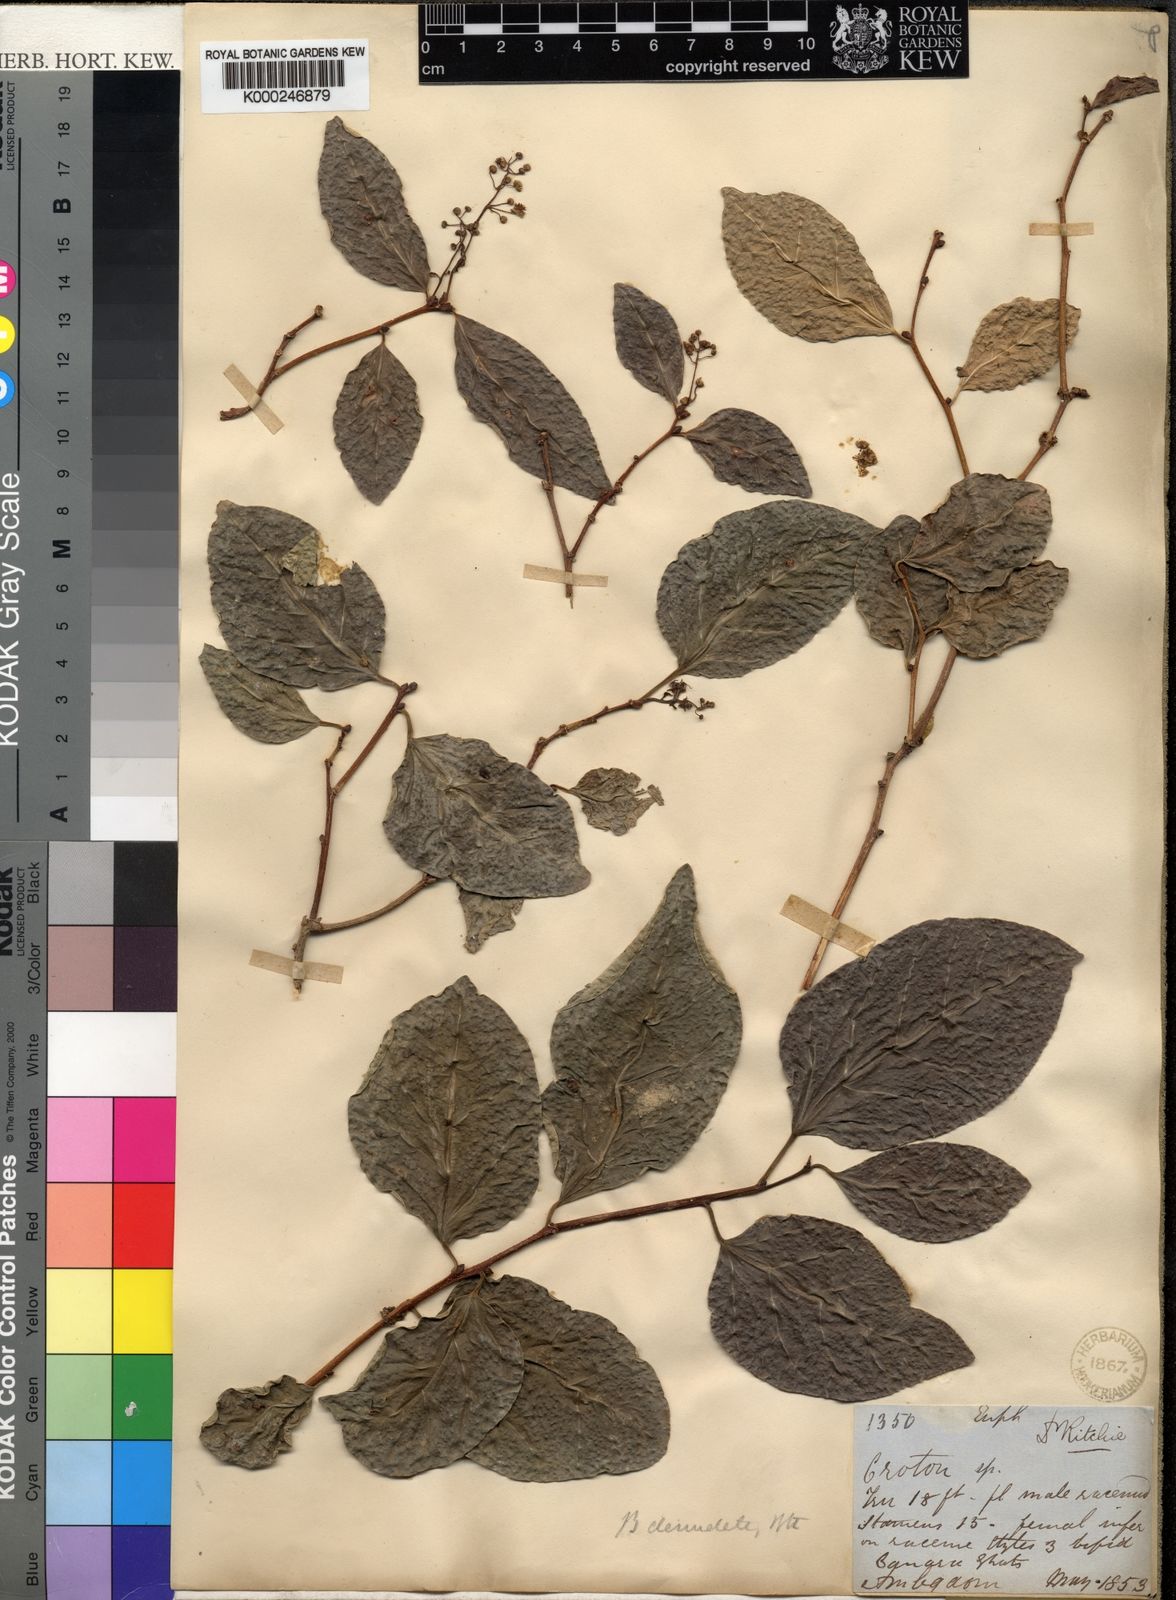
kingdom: Plantae
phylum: Tracheophyta
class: Magnoliopsida
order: Malpighiales
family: Euphorbiaceae
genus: Blachia
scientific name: Blachia denudata
